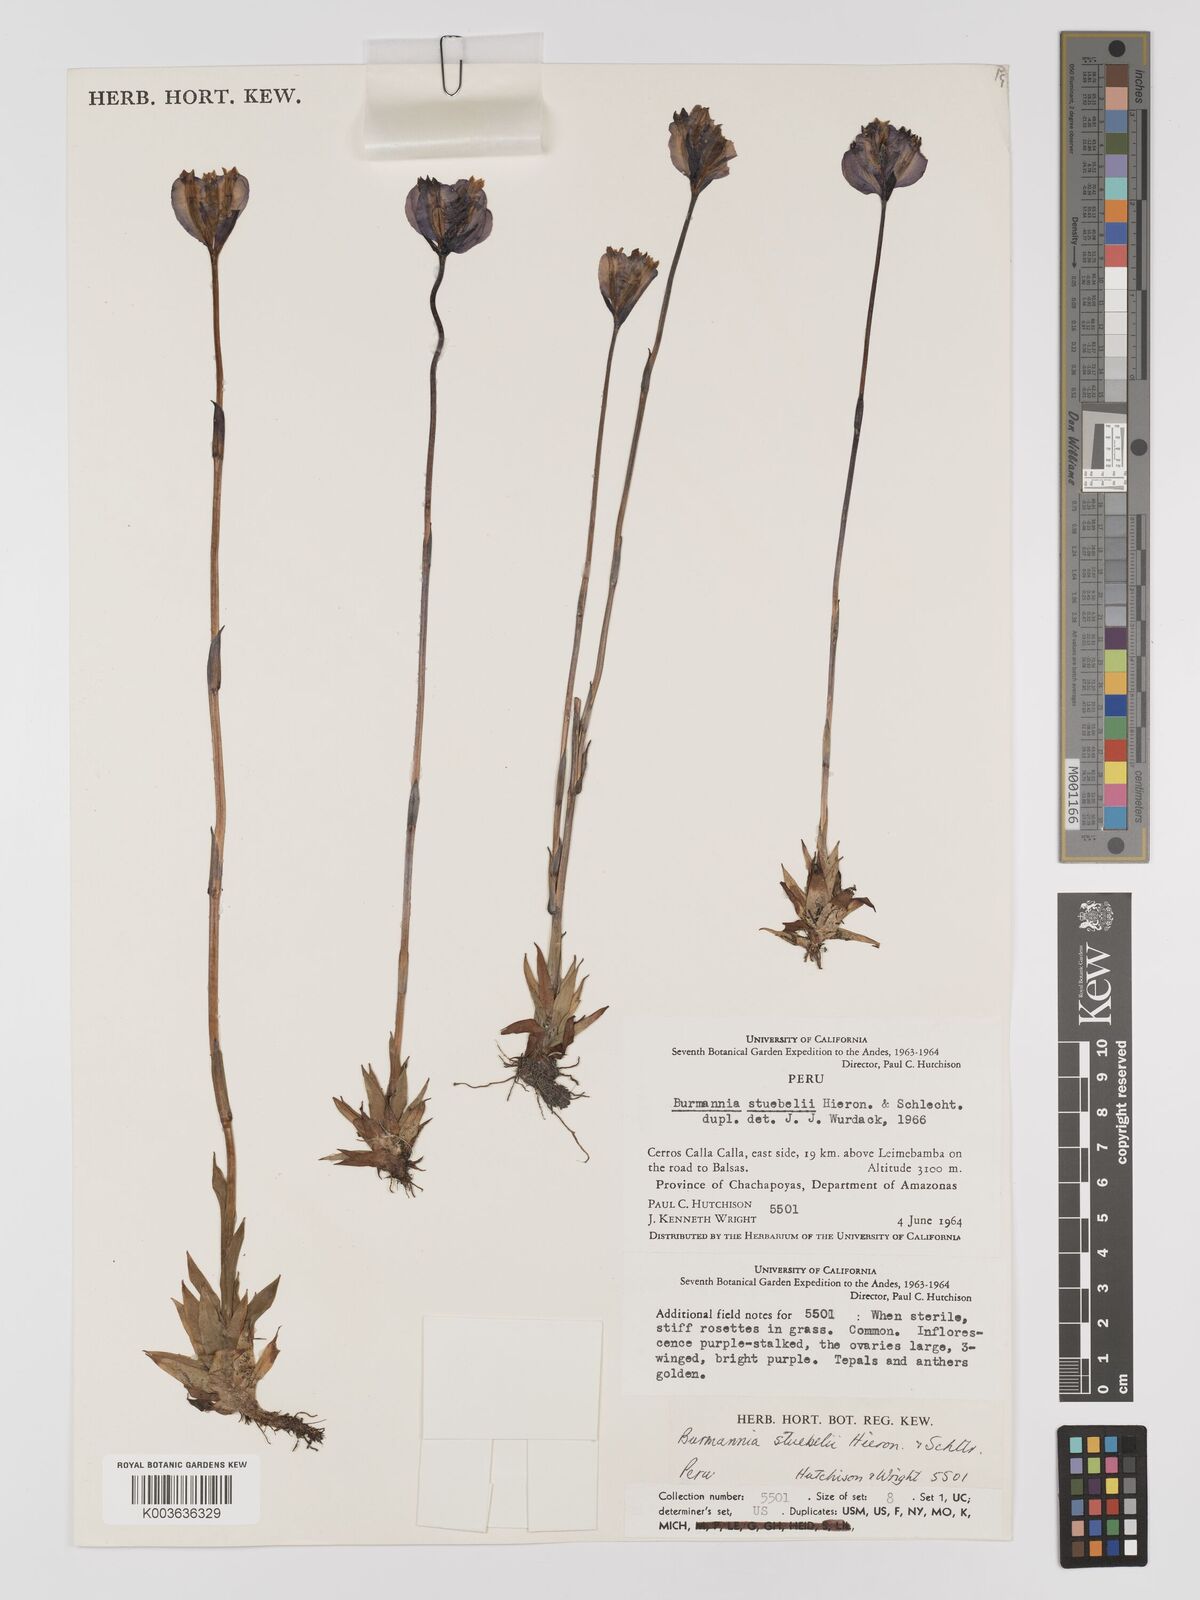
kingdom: Plantae
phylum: Tracheophyta
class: Liliopsida
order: Dioscoreales
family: Burmanniaceae
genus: Burmannia
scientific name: Burmannia stuebelii
